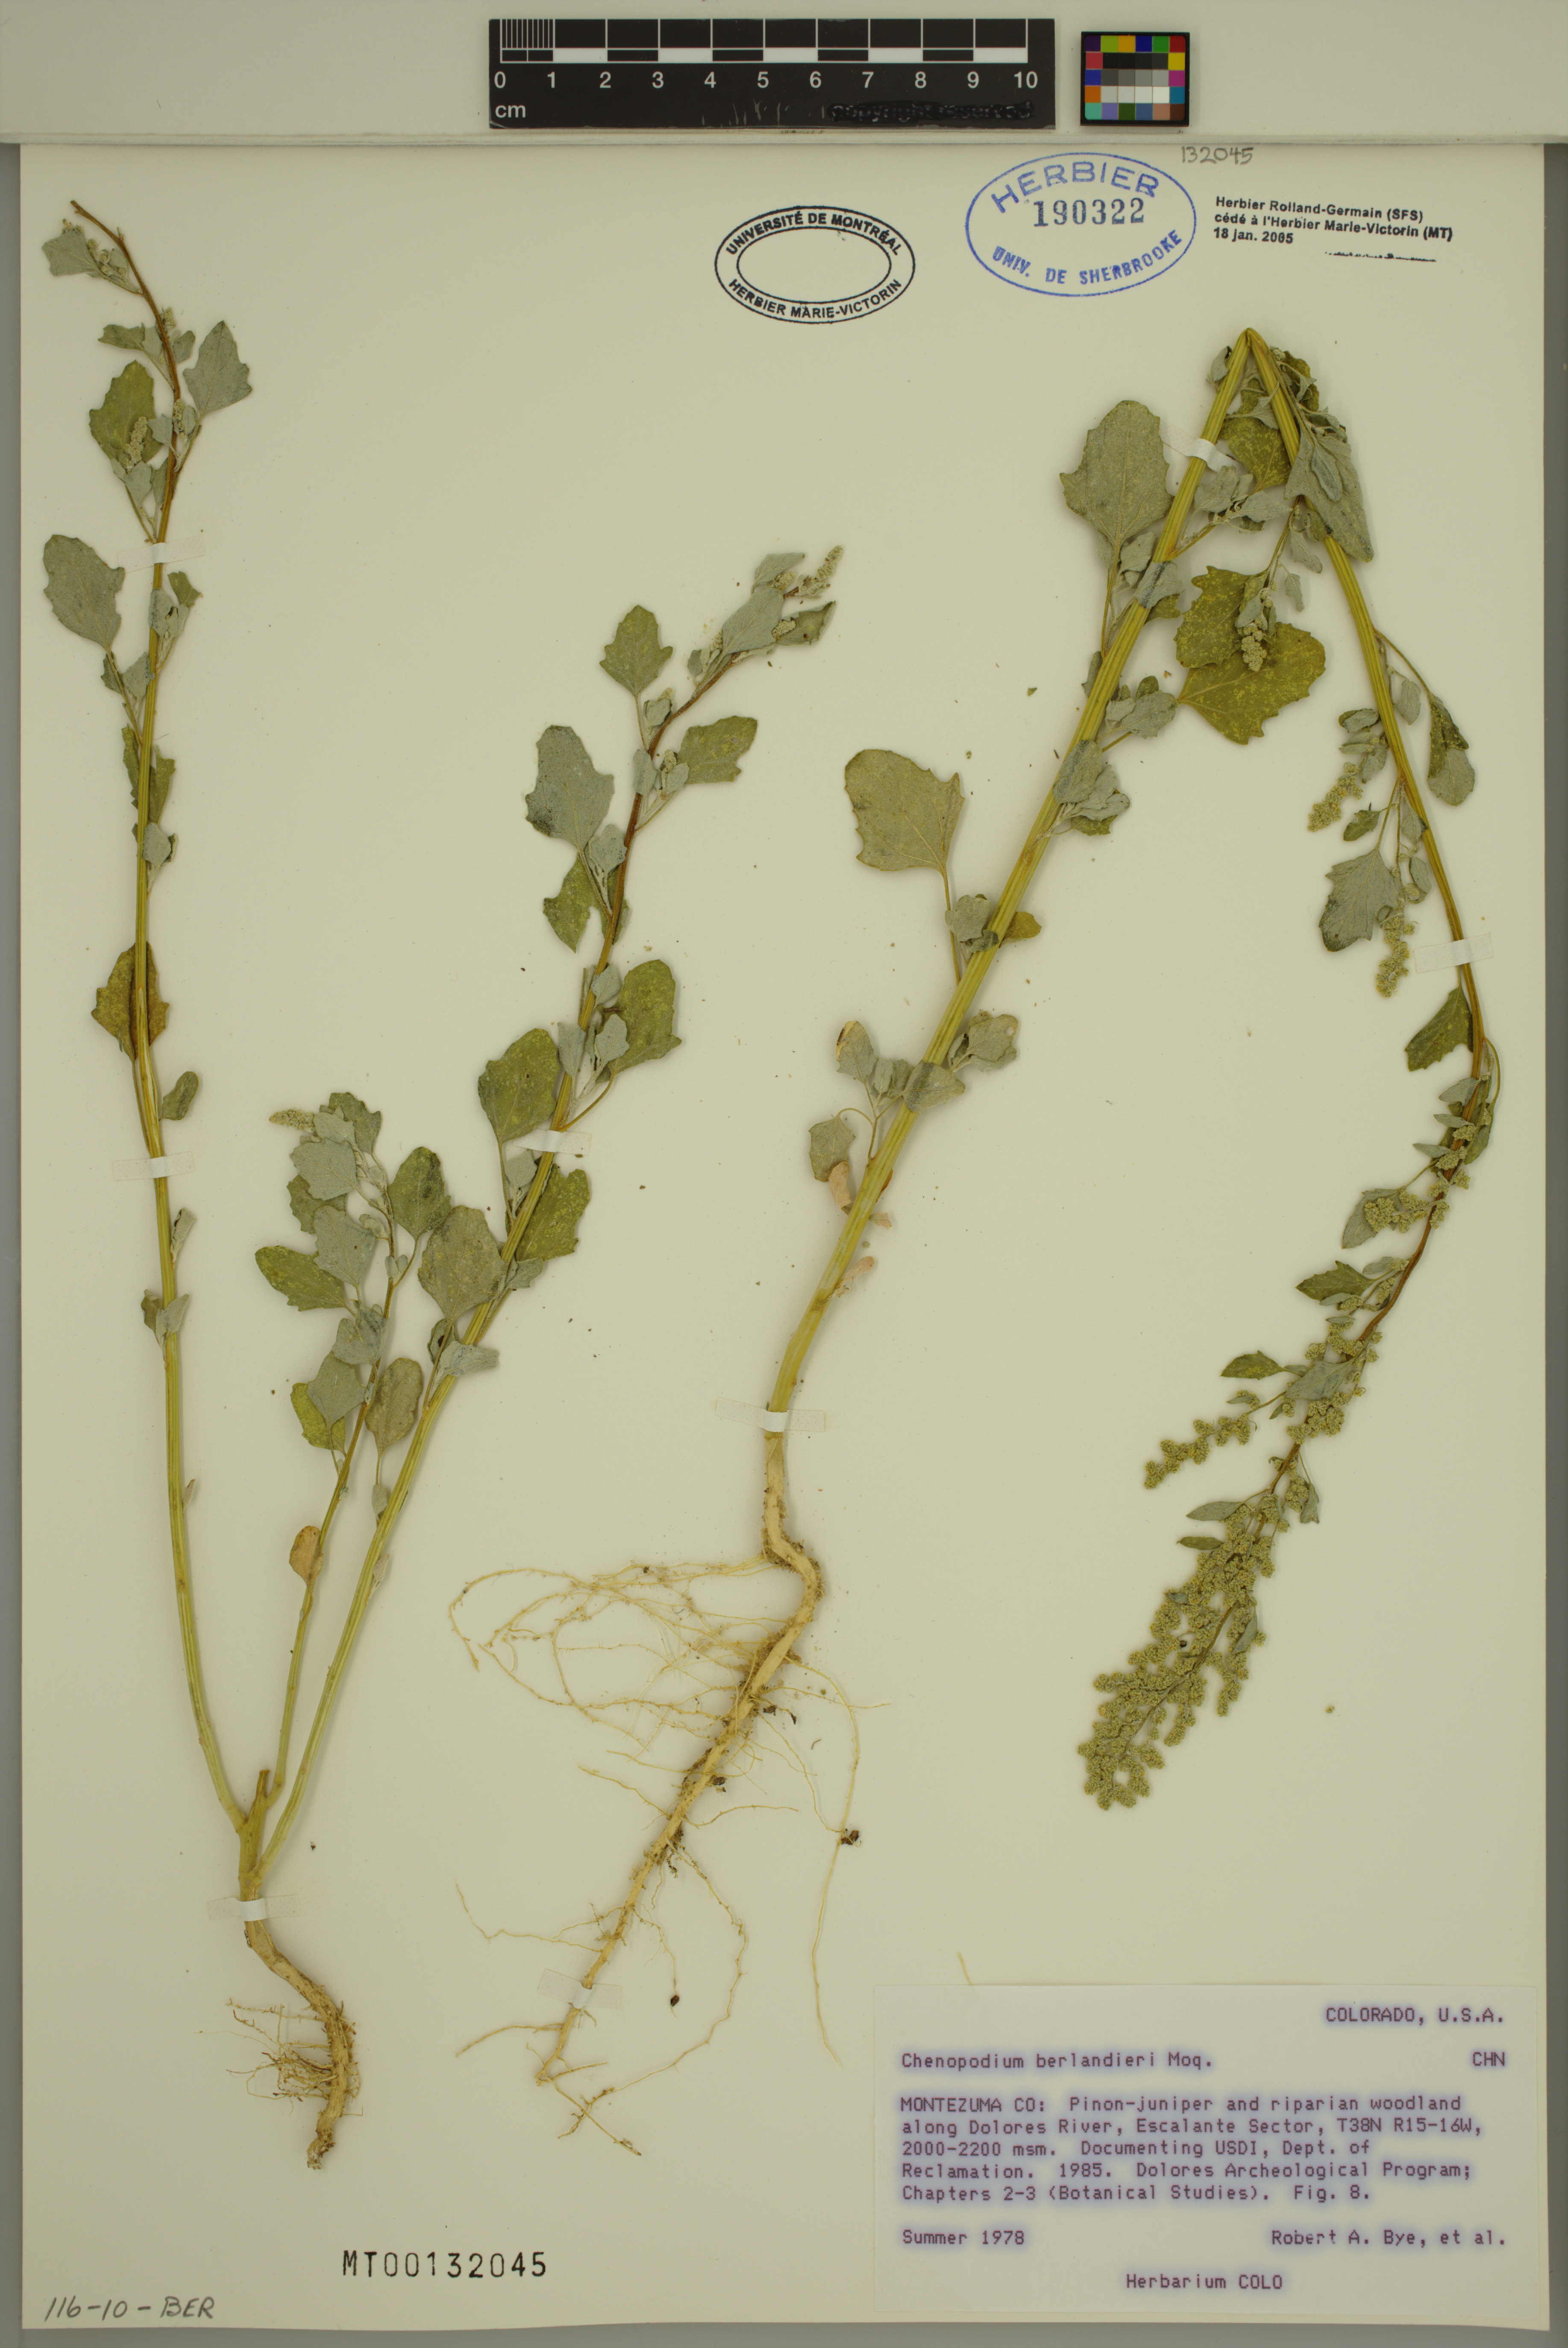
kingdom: Plantae
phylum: Tracheophyta
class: Magnoliopsida
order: Caryophyllales
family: Amaranthaceae
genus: Chenopodium
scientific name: Chenopodium berlandieri
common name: Pit-seed goosefoot
